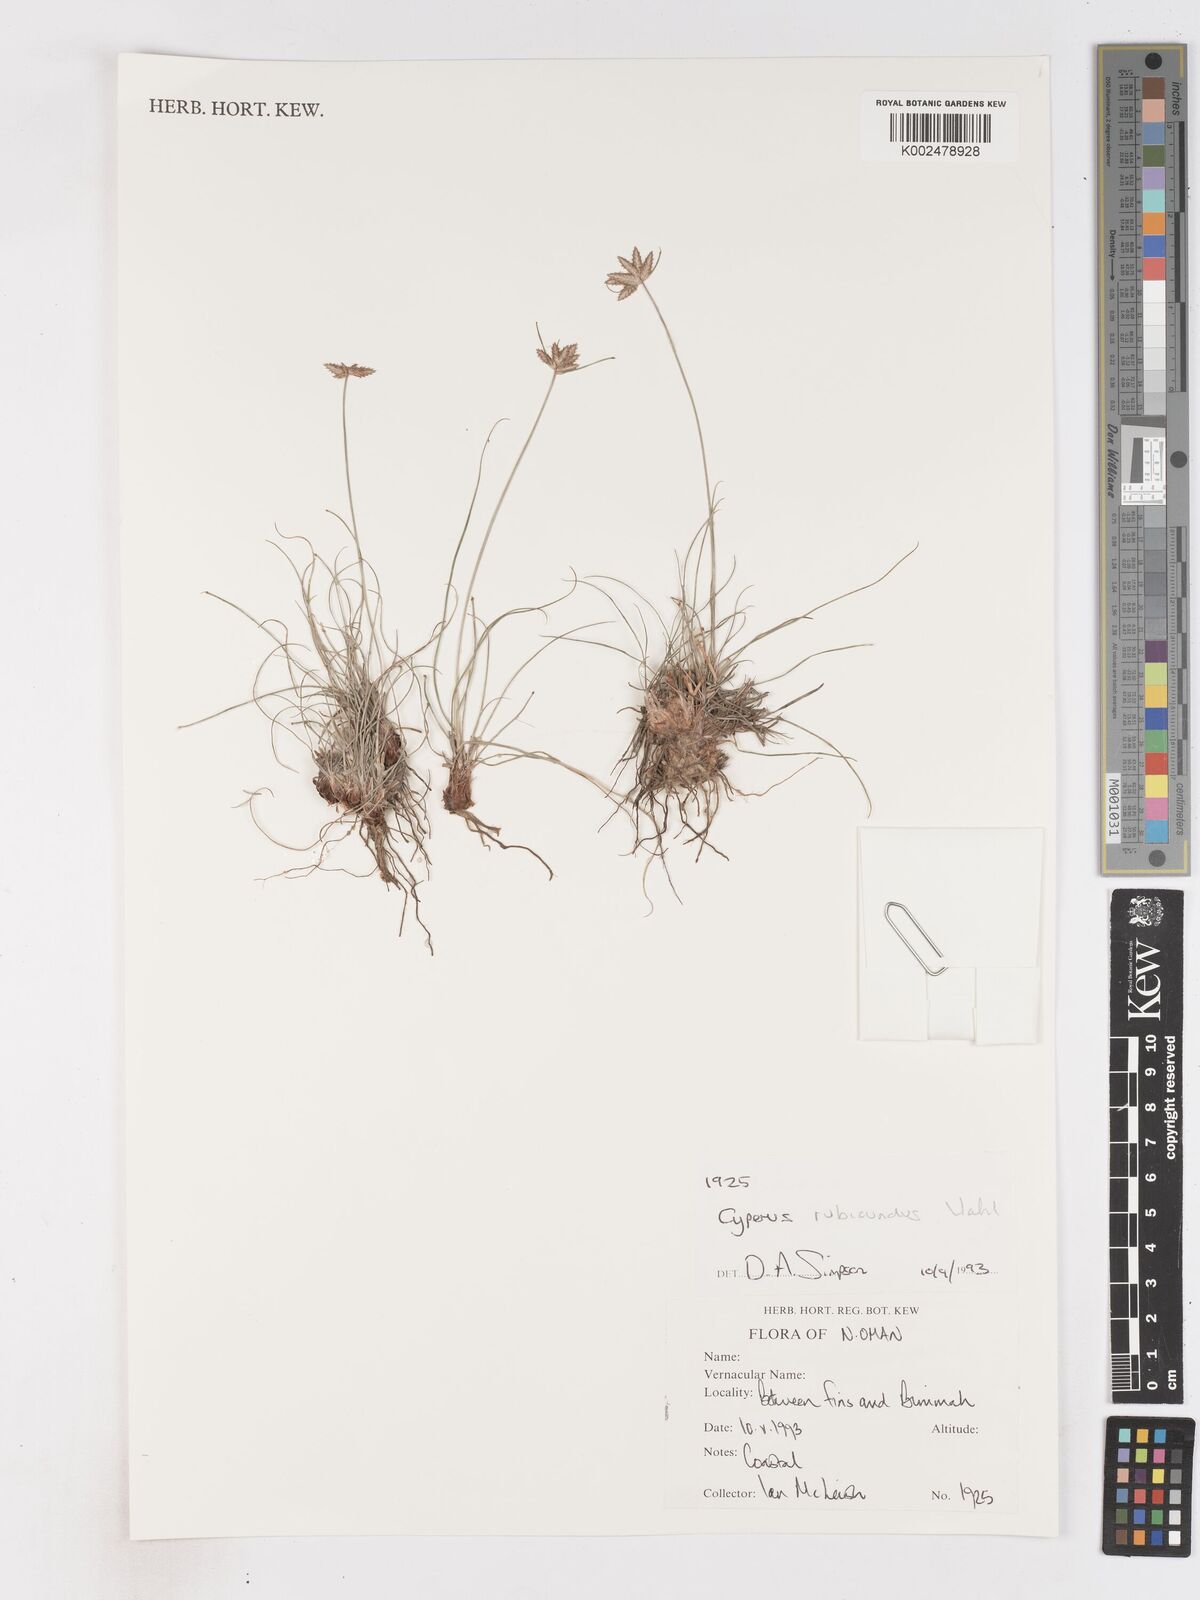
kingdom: Plantae
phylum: Tracheophyta
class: Liliopsida
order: Poales
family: Cyperaceae
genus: Cyperus
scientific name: Cyperus wissmannii
